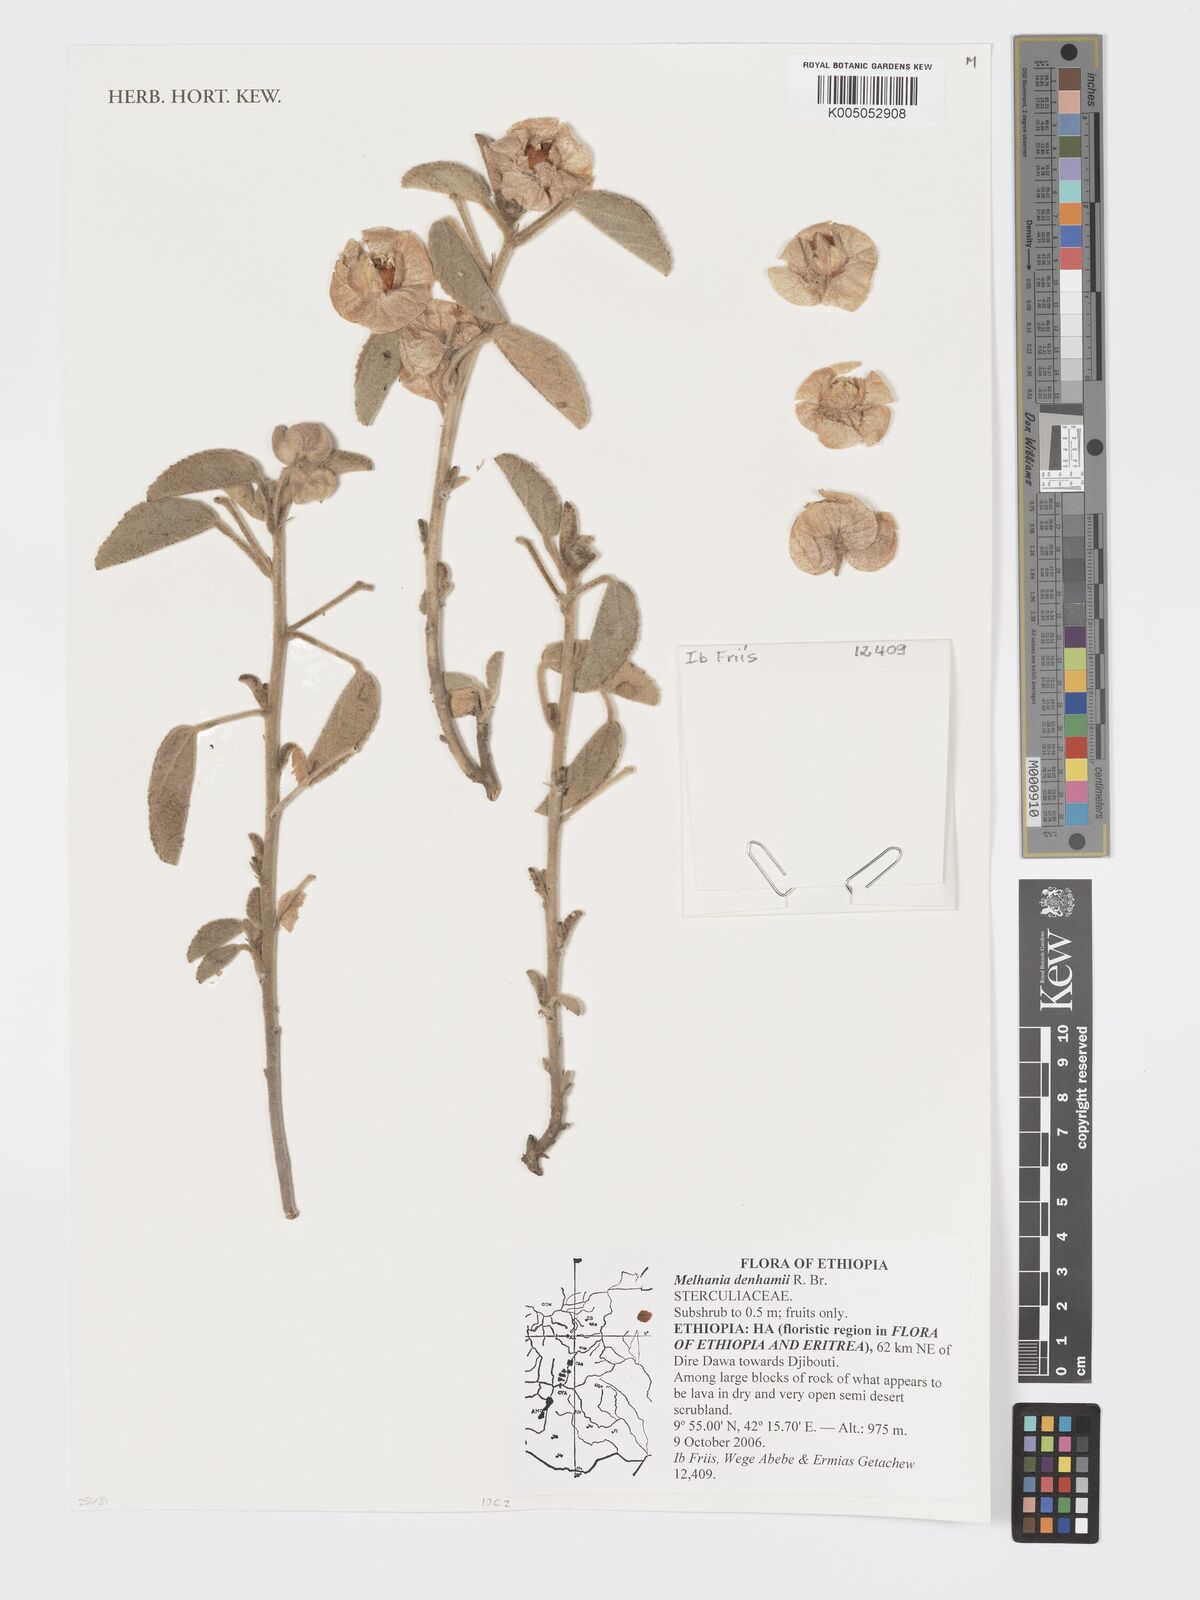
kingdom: Plantae
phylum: Tracheophyta
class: Magnoliopsida
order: Malvales
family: Malvaceae
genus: Melhania
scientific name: Melhania denhamii
